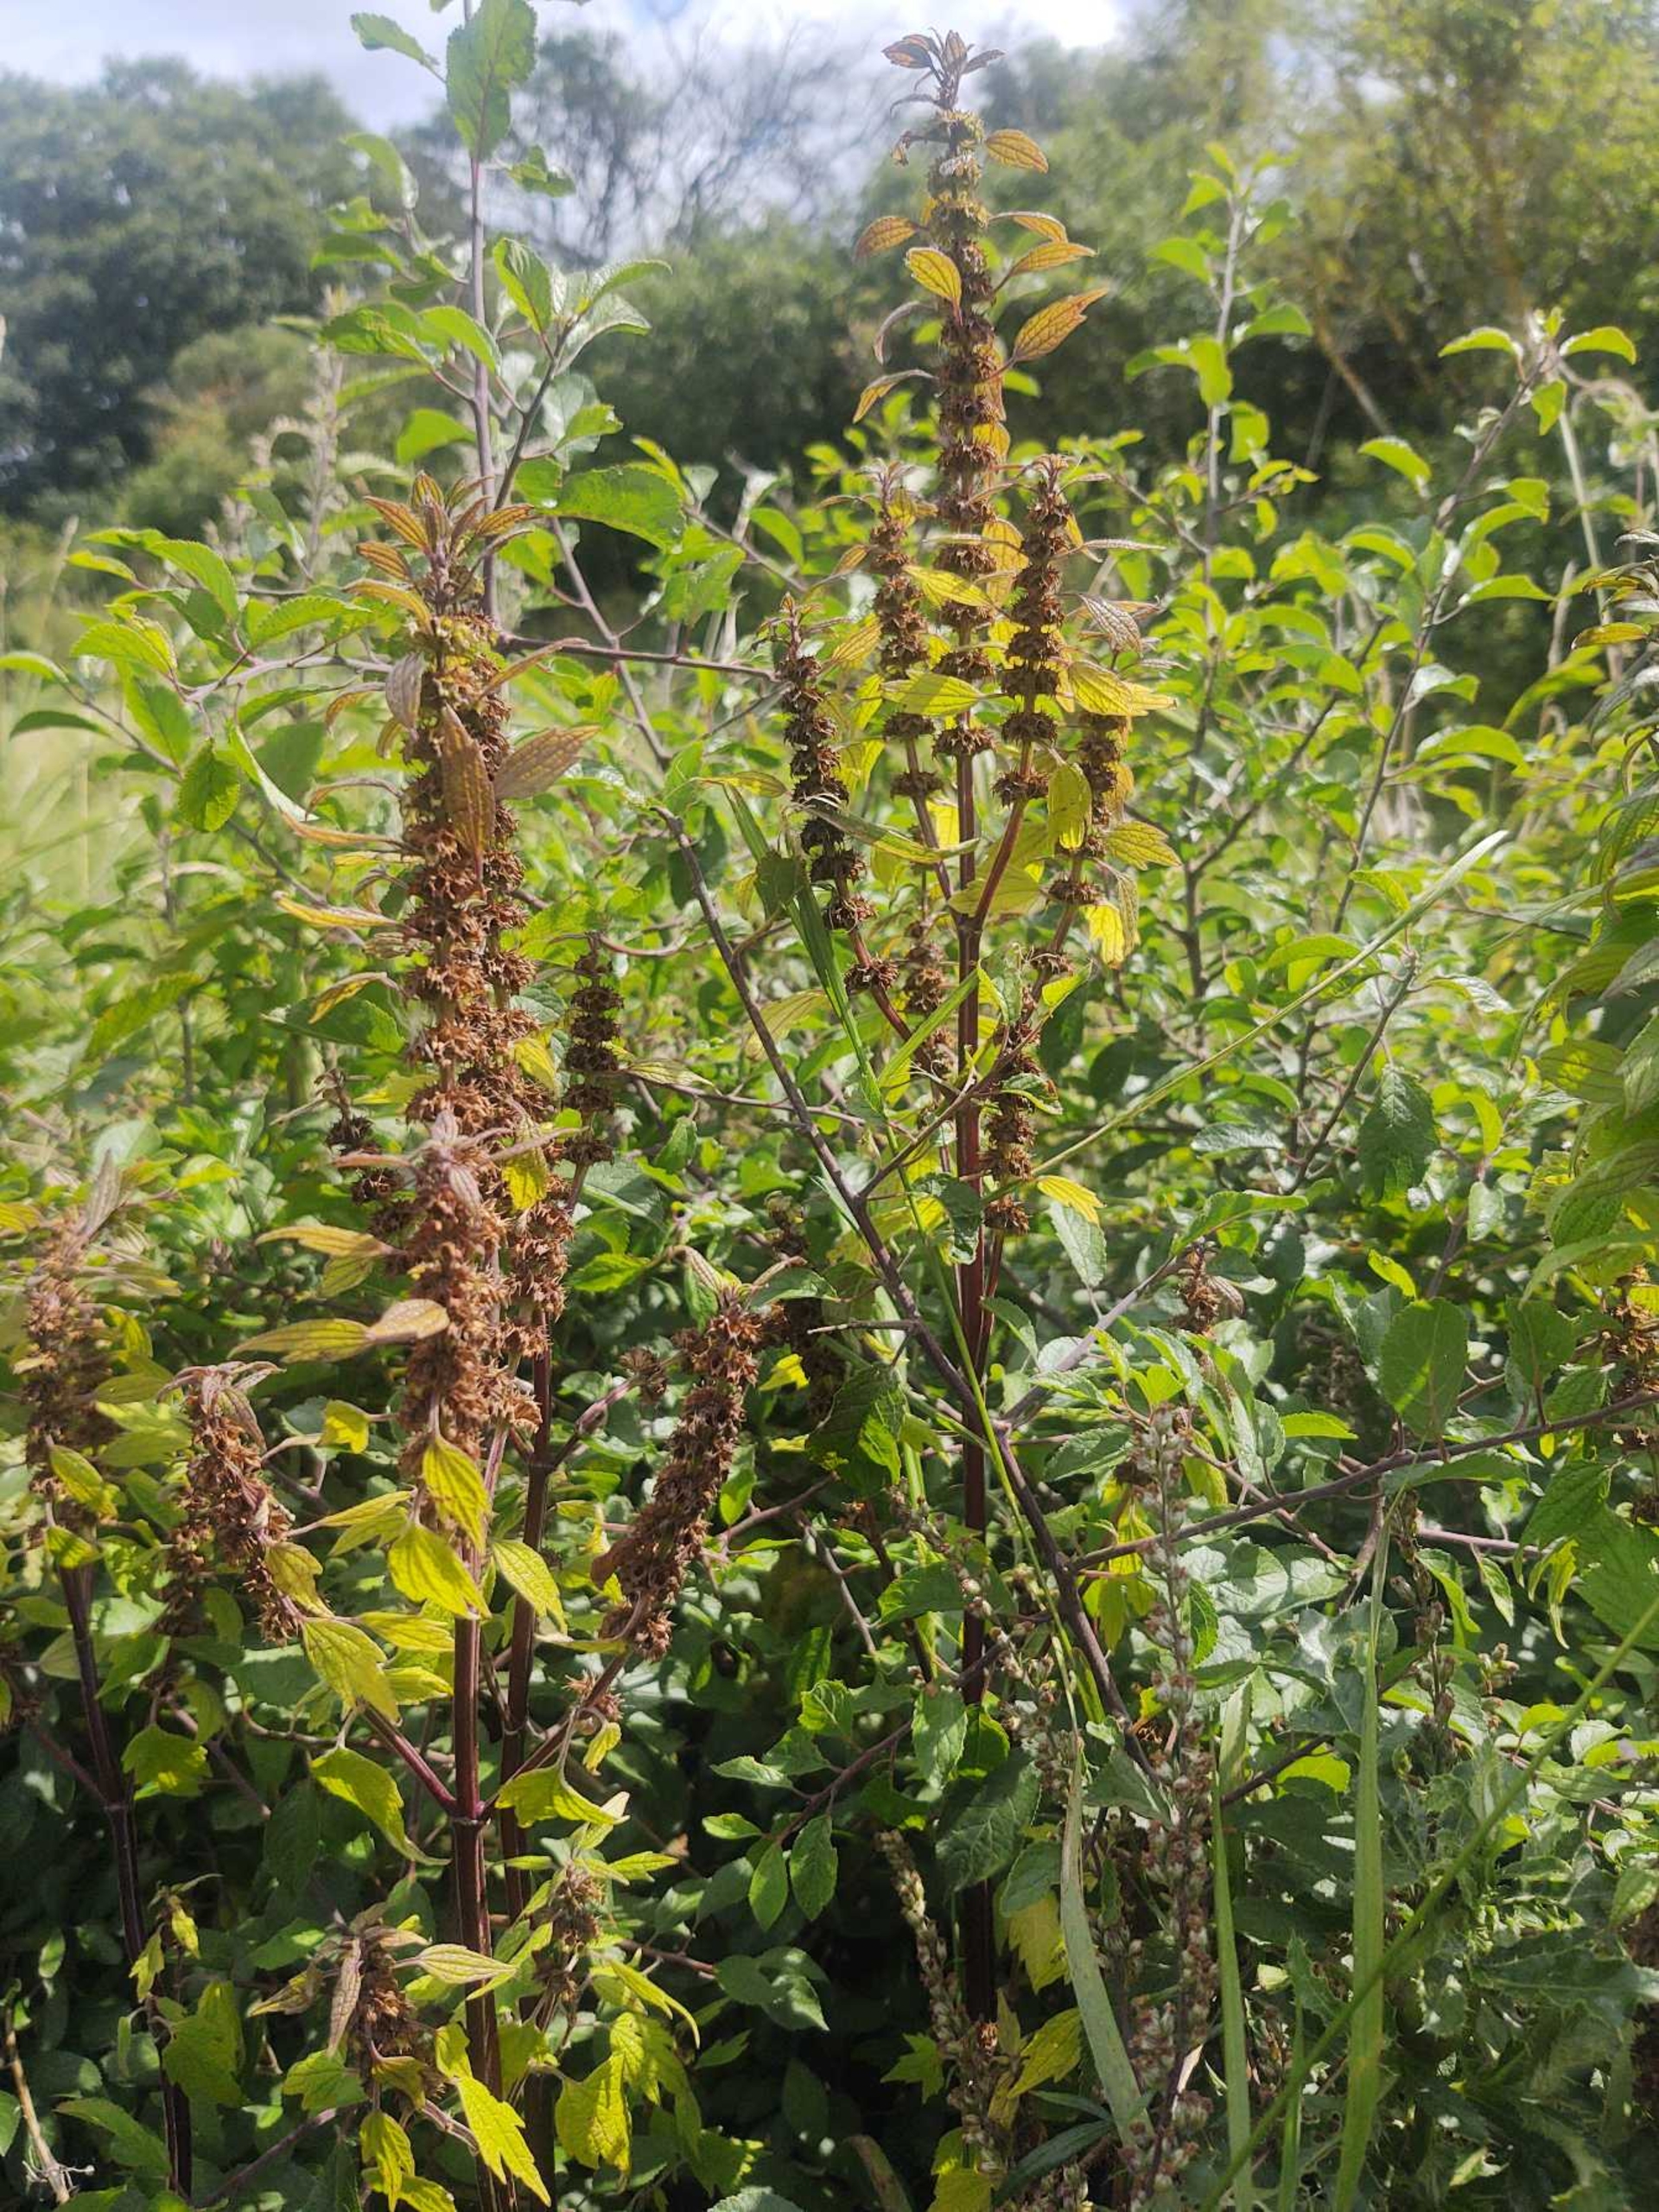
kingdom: Plantae
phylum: Tracheophyta
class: Magnoliopsida
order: Lamiales
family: Lamiaceae
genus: Leonurus
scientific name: Leonurus cardiaca
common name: Hjertespand
